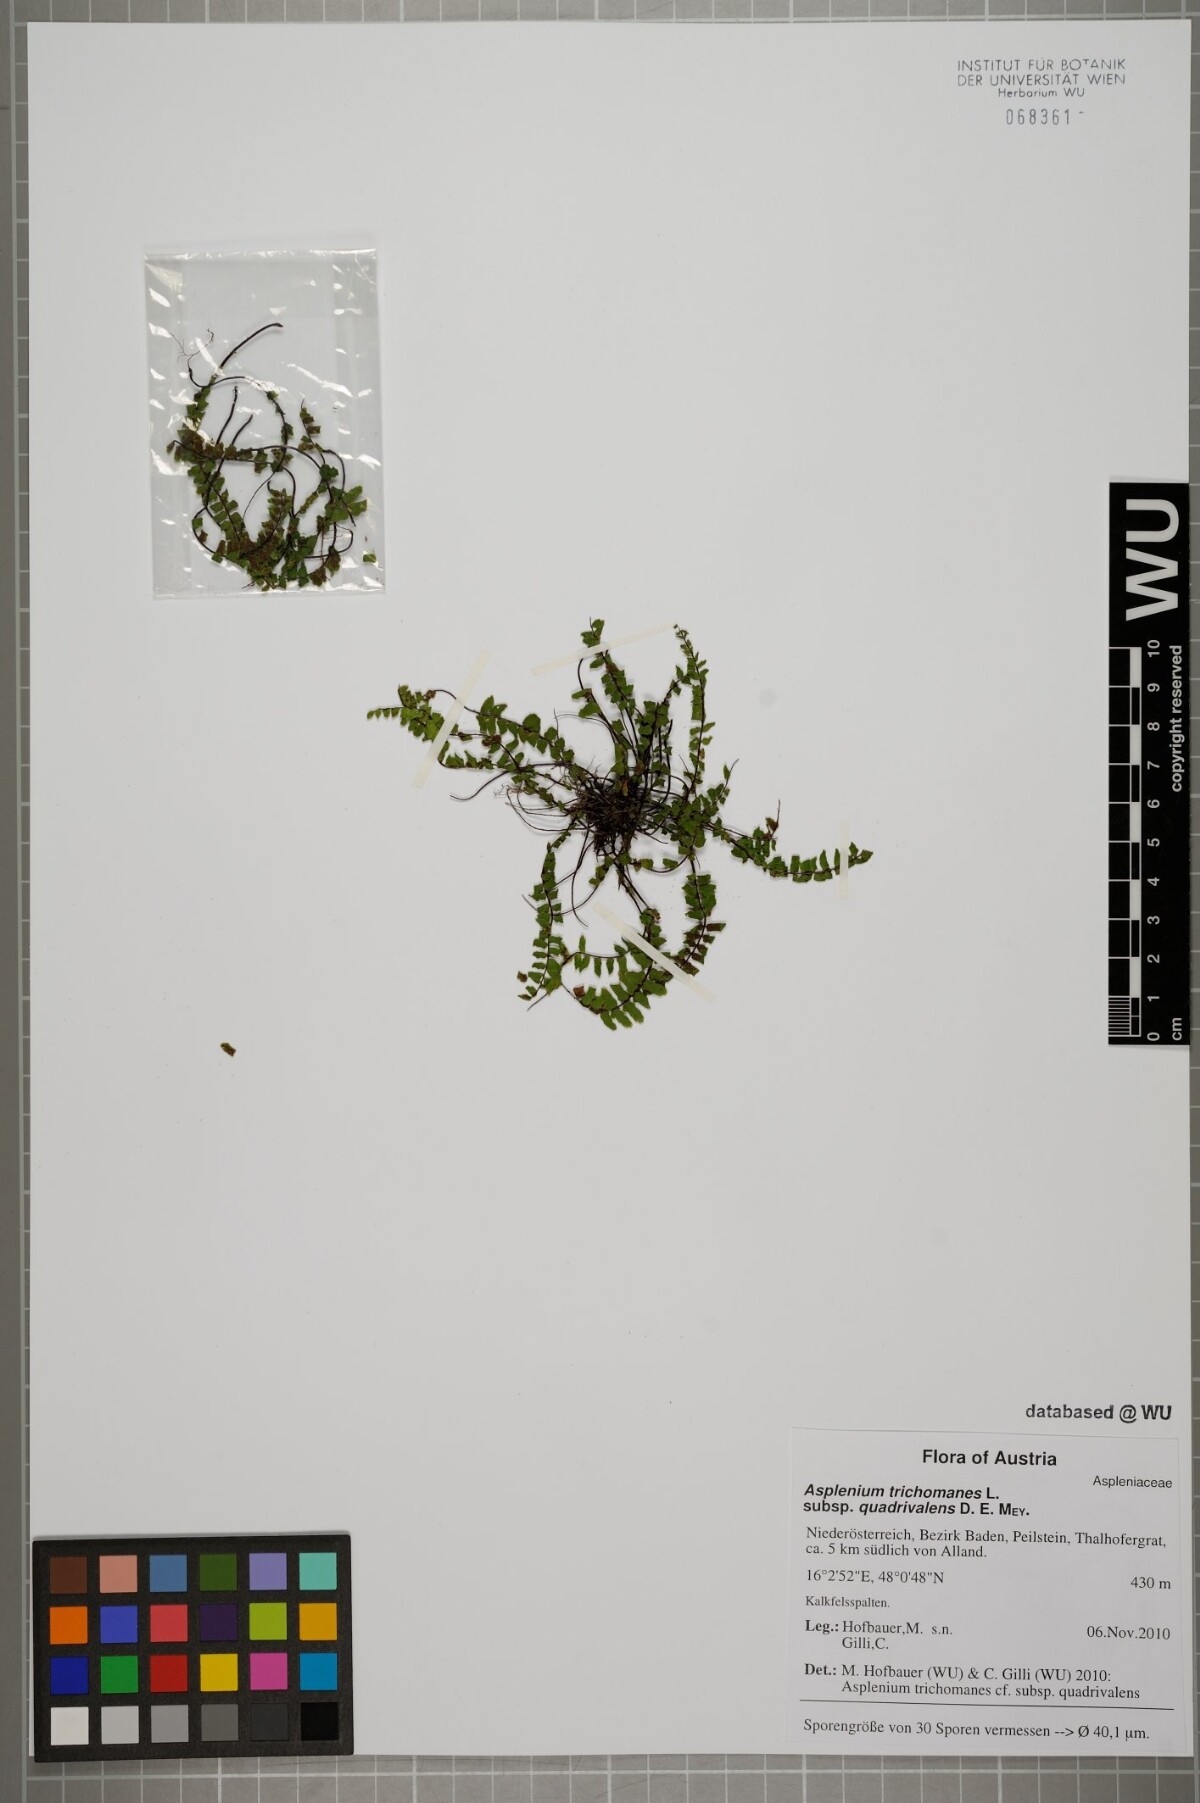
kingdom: Plantae
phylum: Tracheophyta
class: Polypodiopsida
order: Polypodiales
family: Aspleniaceae
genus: Asplenium
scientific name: Asplenium quadrivalens
